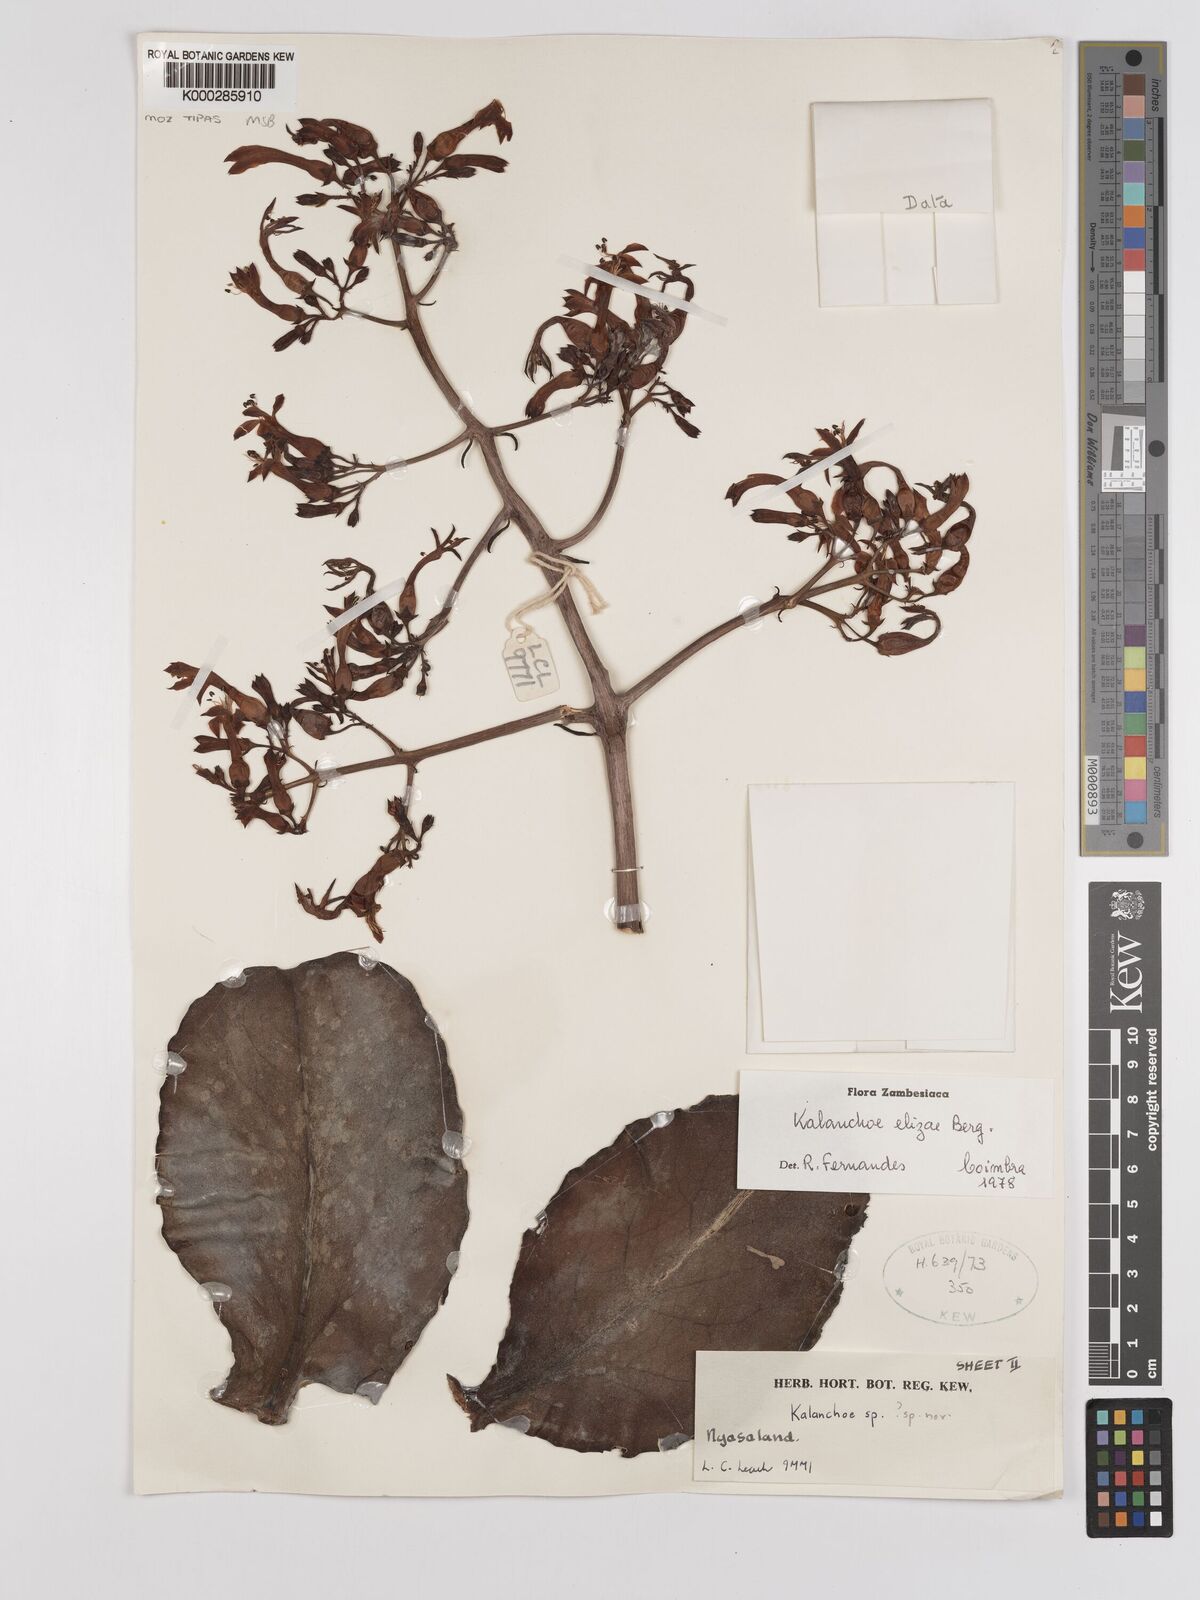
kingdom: Plantae
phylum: Tracheophyta
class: Magnoliopsida
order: Saxifragales
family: Crassulaceae
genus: Kalanchoe
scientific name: Kalanchoe elizae
